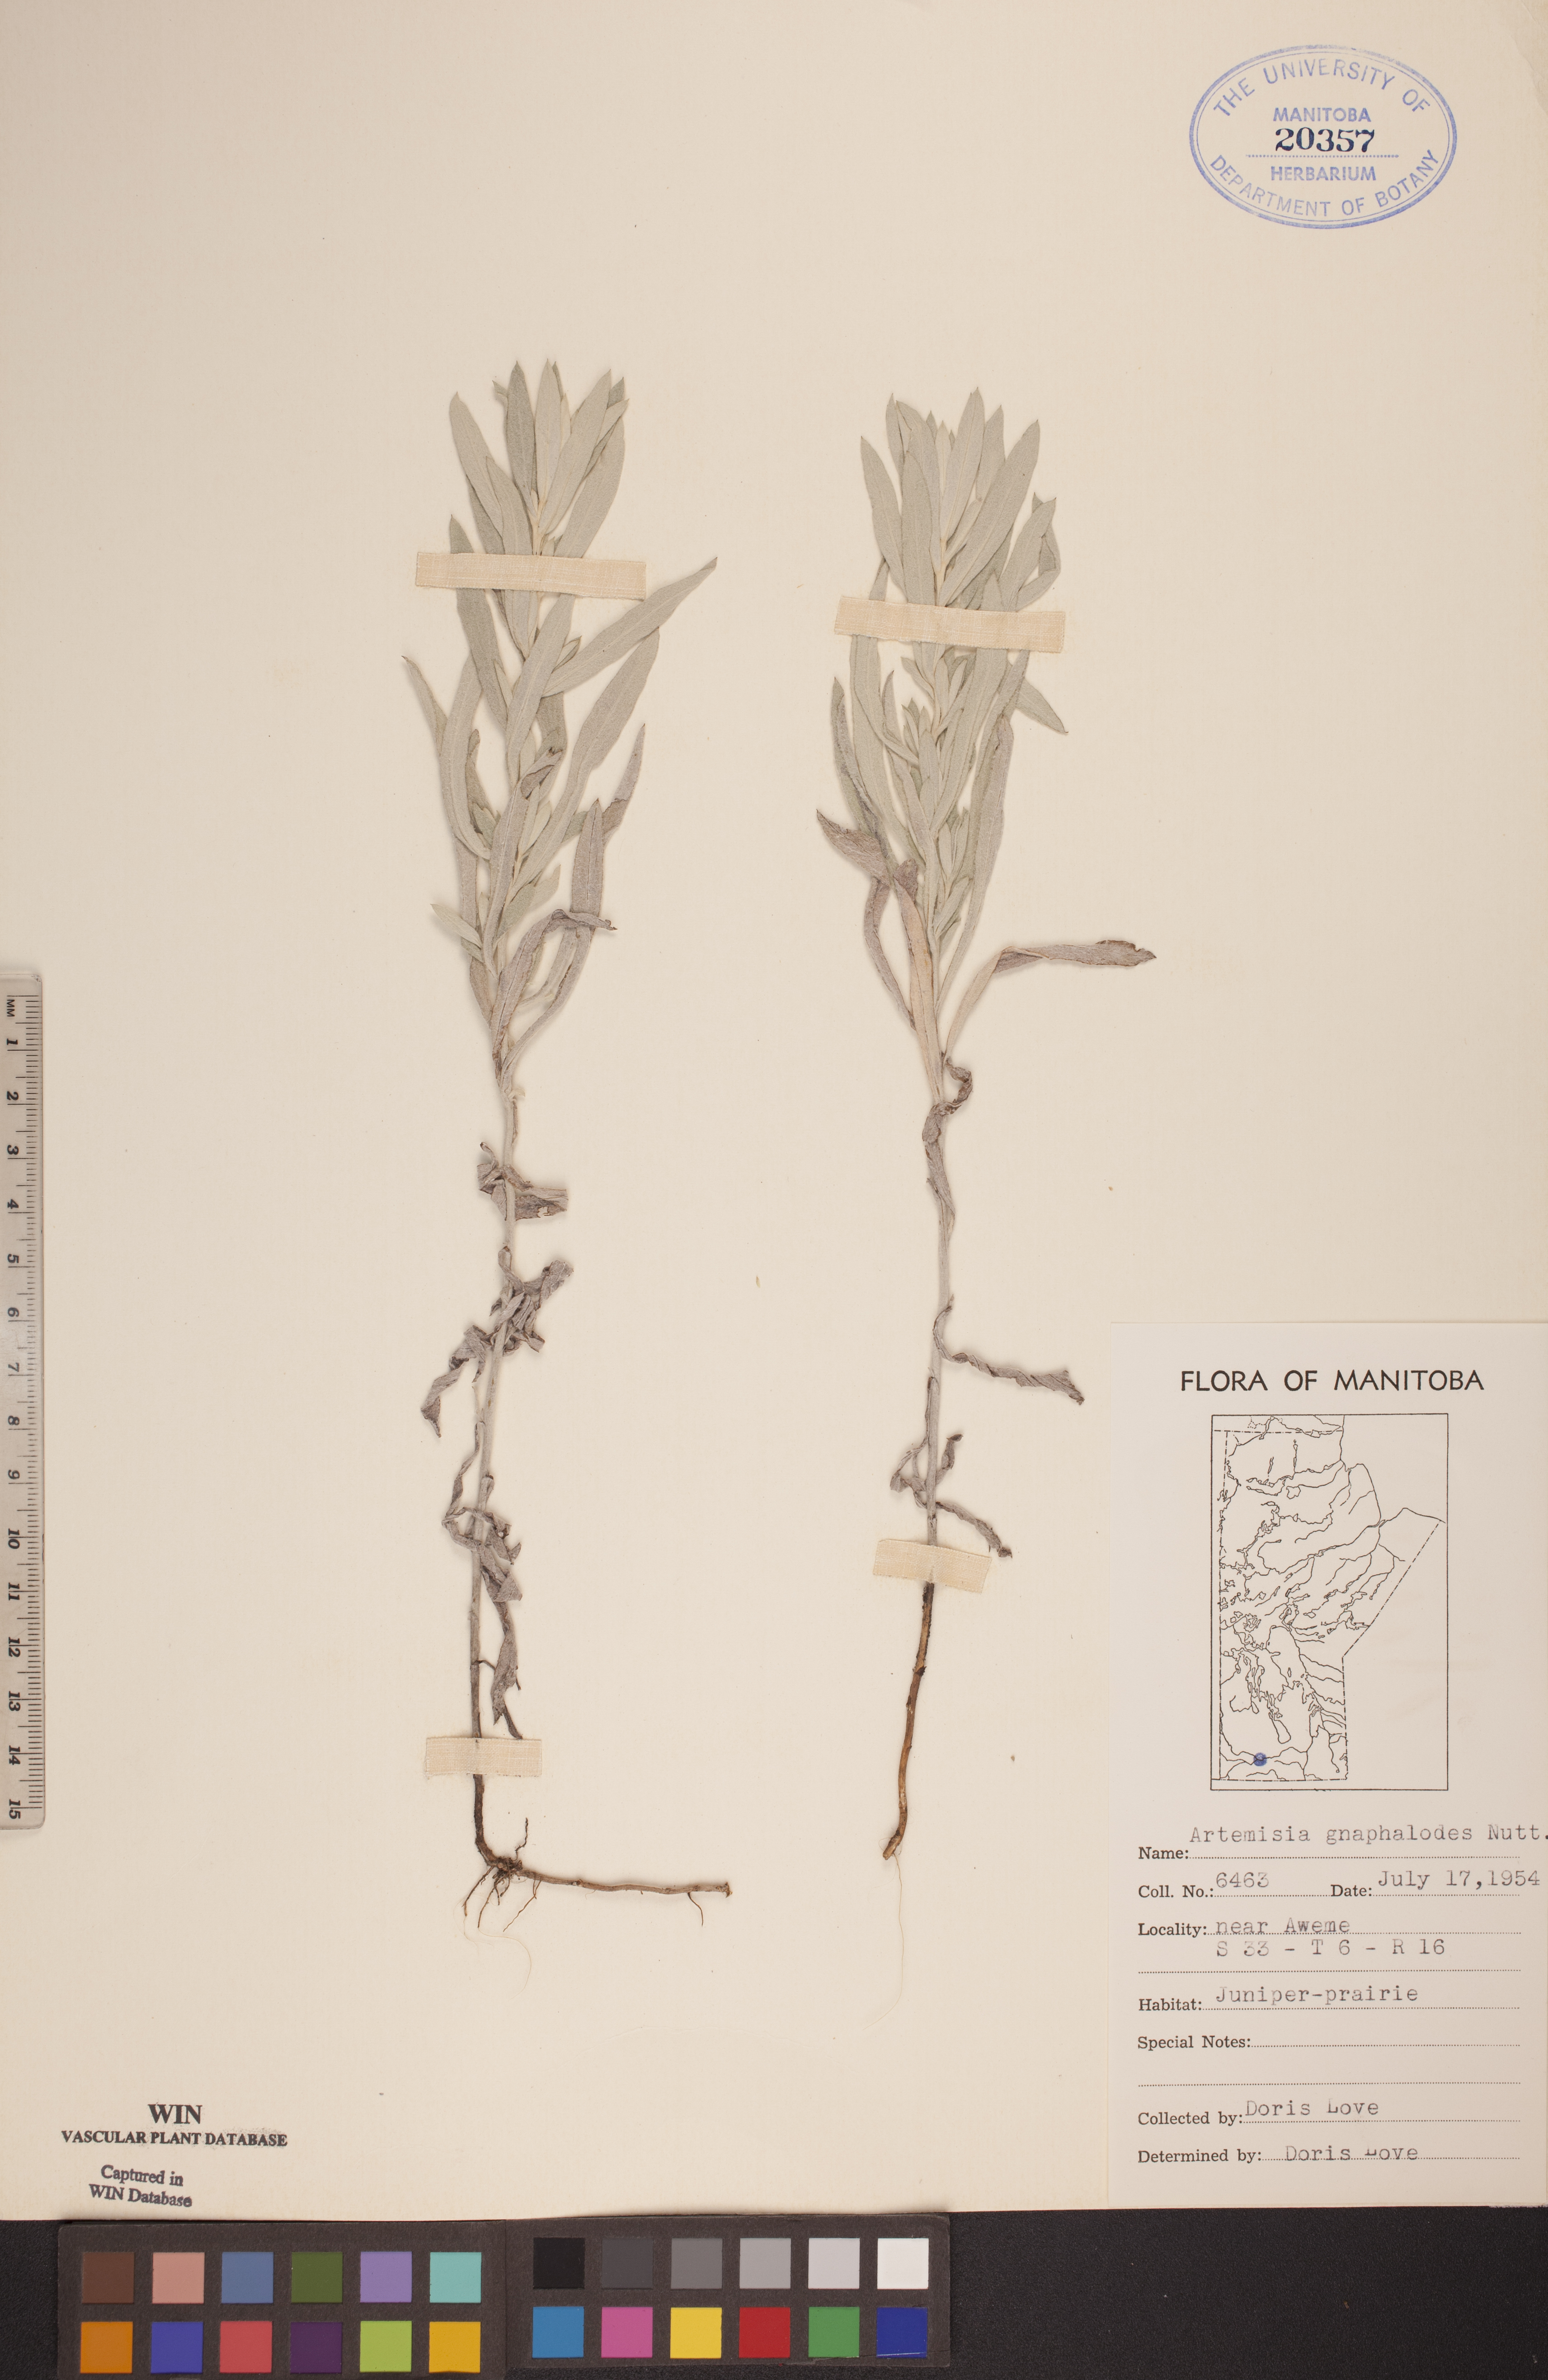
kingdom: Plantae
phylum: Tracheophyta
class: Magnoliopsida
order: Asterales
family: Asteraceae
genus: Artemisia
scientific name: Artemisia ludoviciana
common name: Western mugwort
